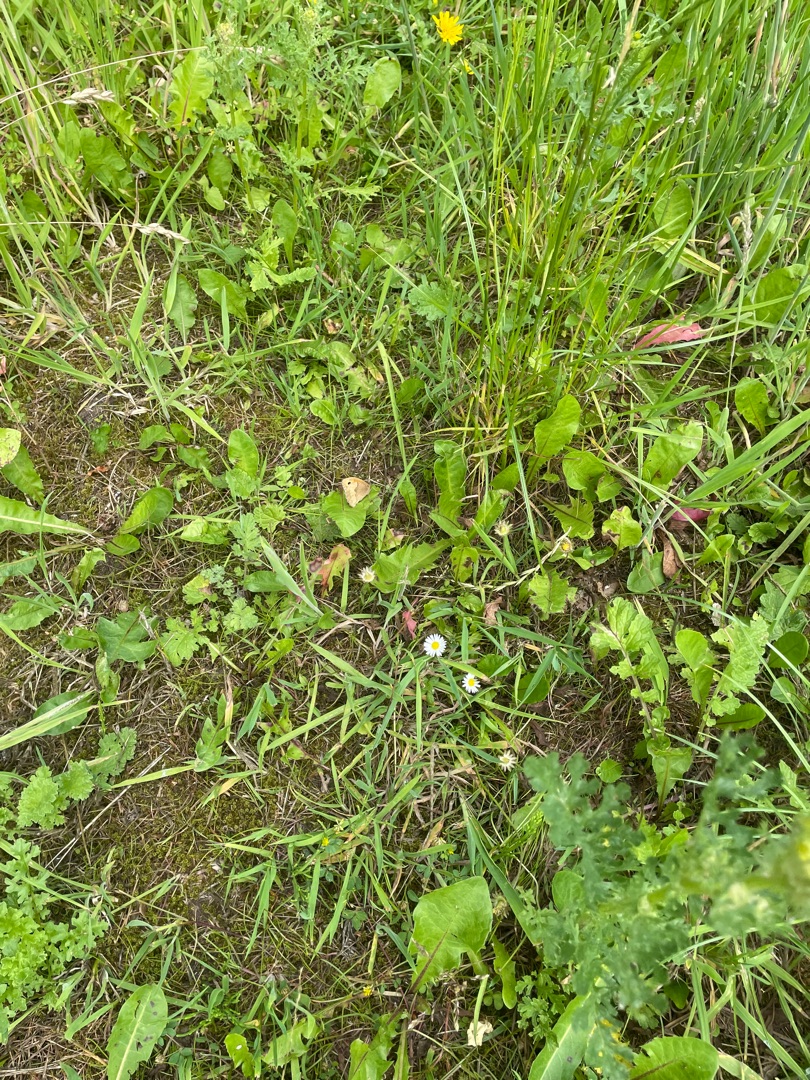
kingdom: Animalia
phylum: Arthropoda
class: Insecta
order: Lepidoptera
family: Nymphalidae
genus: Maniola
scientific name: Maniola jurtina
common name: Græsrandøje
